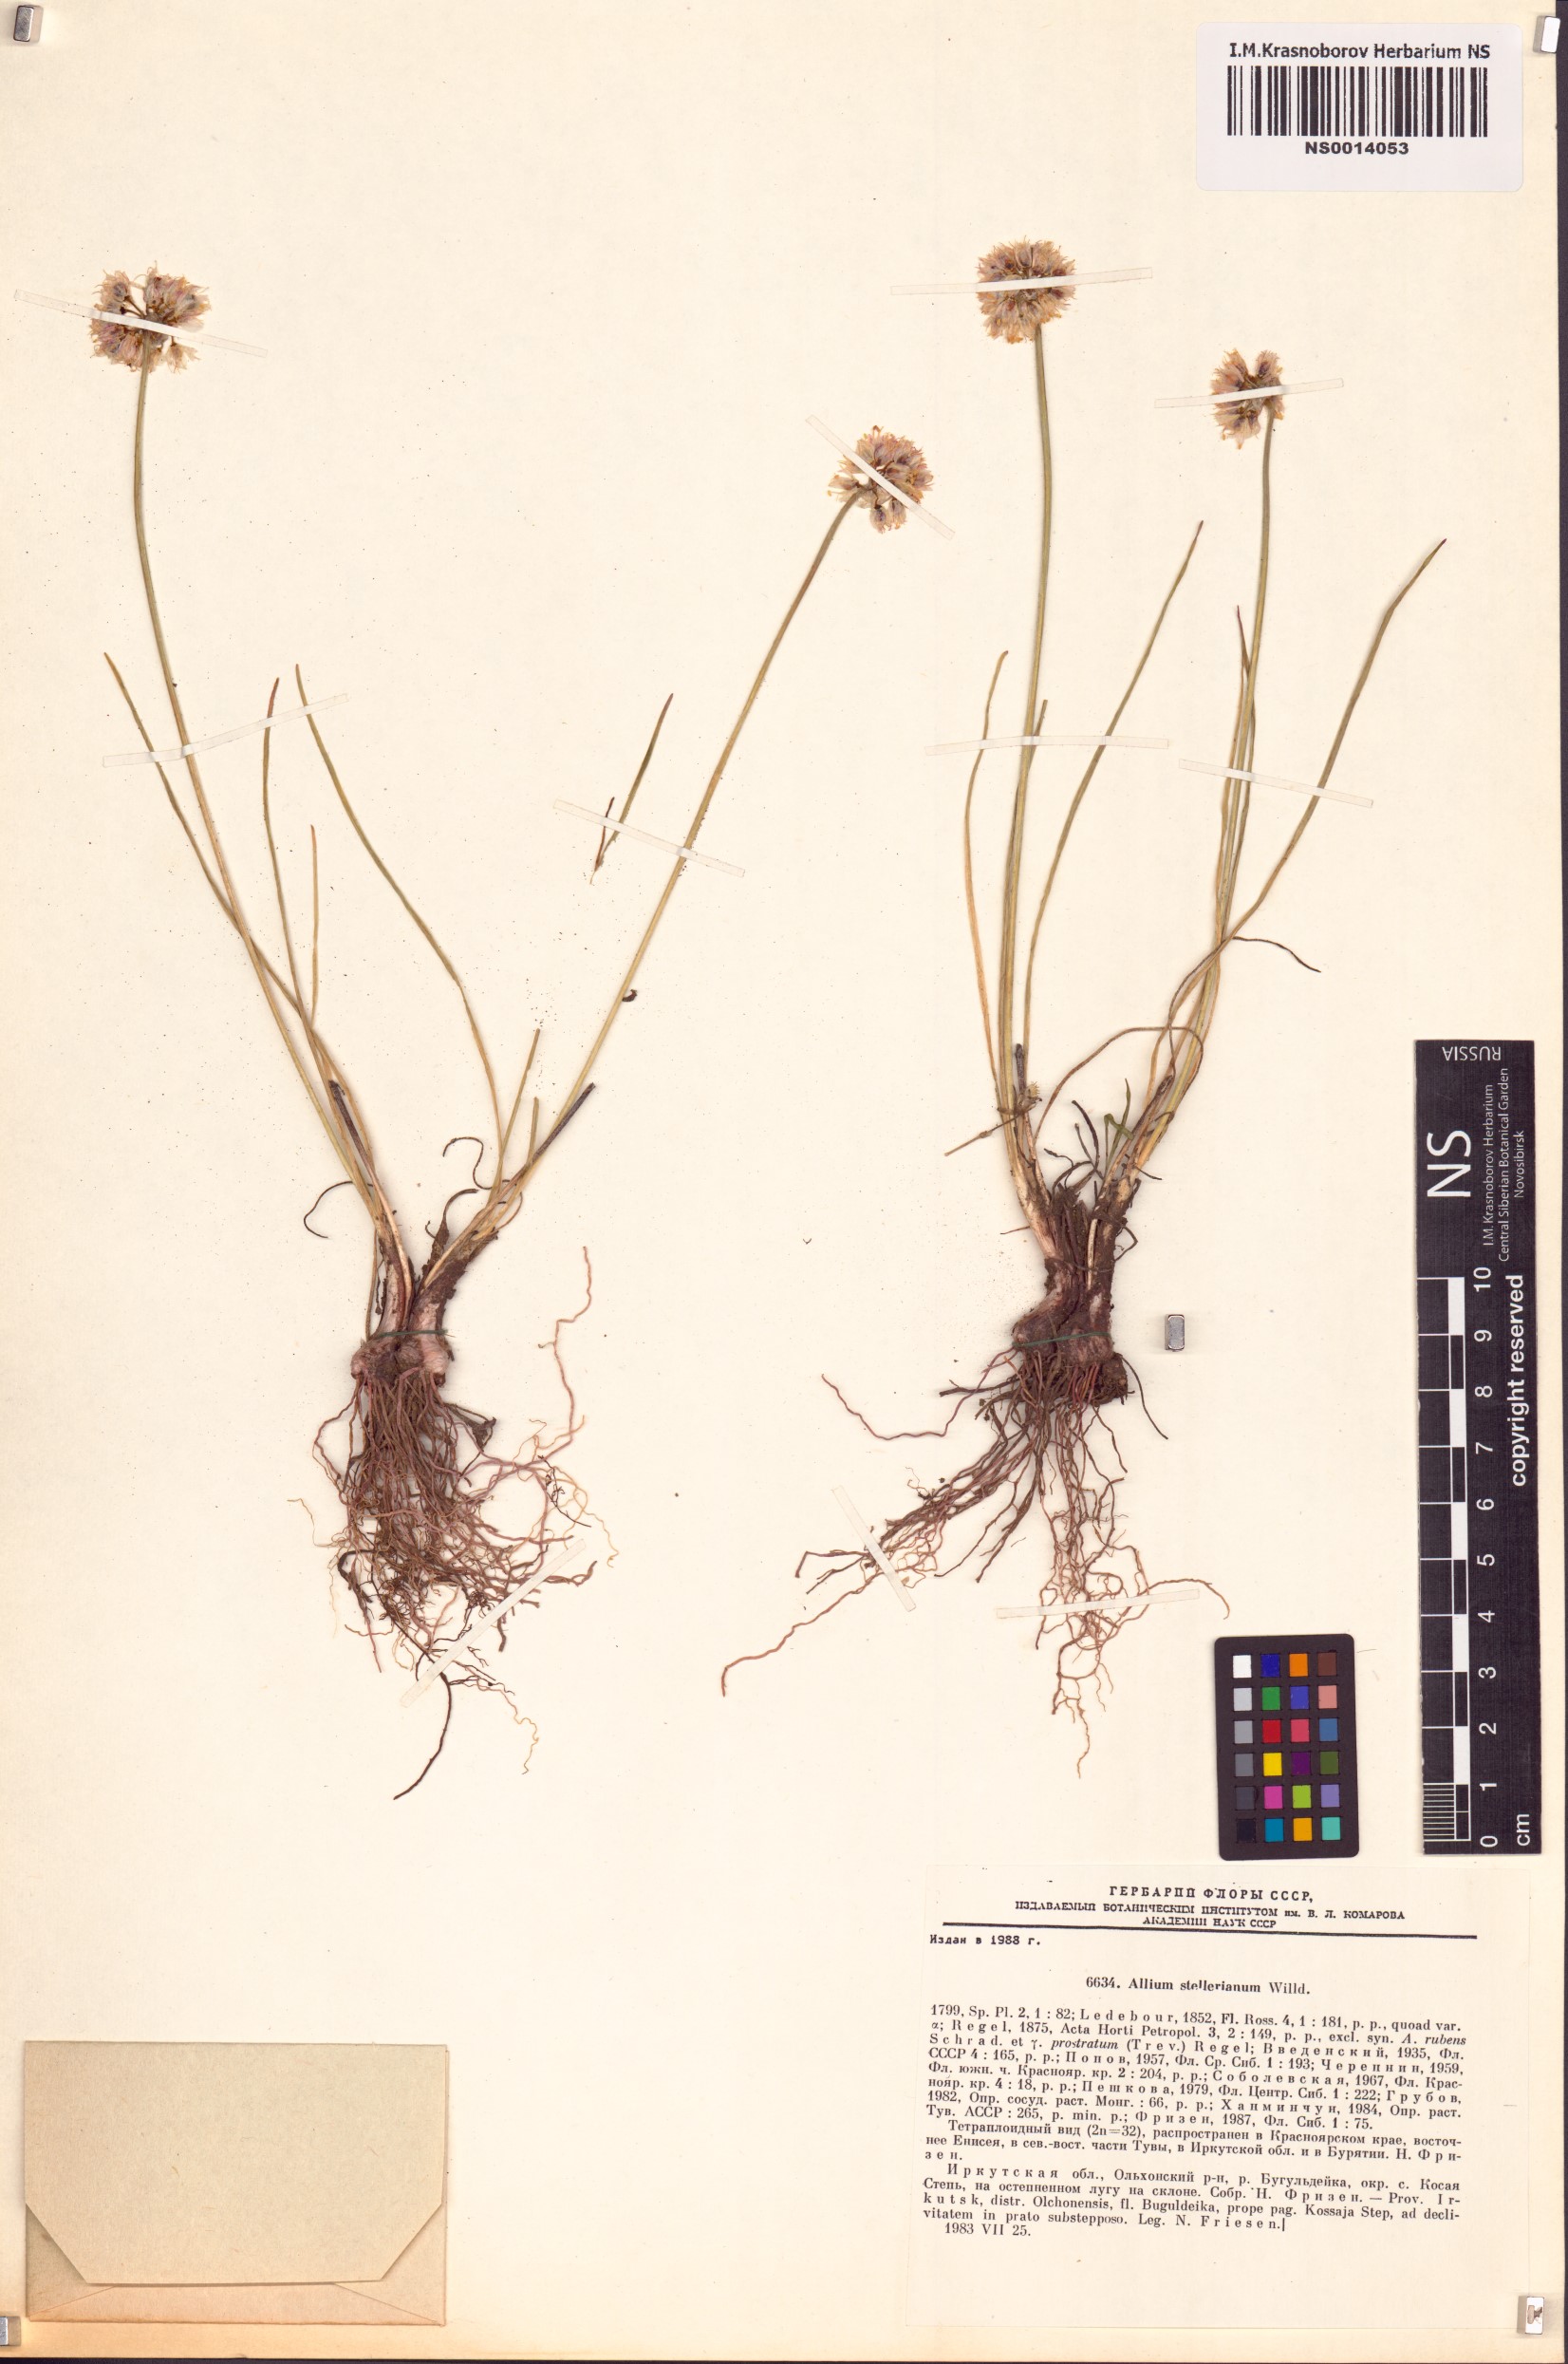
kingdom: Plantae
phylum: Tracheophyta
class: Liliopsida
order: Asparagales
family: Amaryllidaceae
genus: Allium
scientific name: Allium stellerianum
